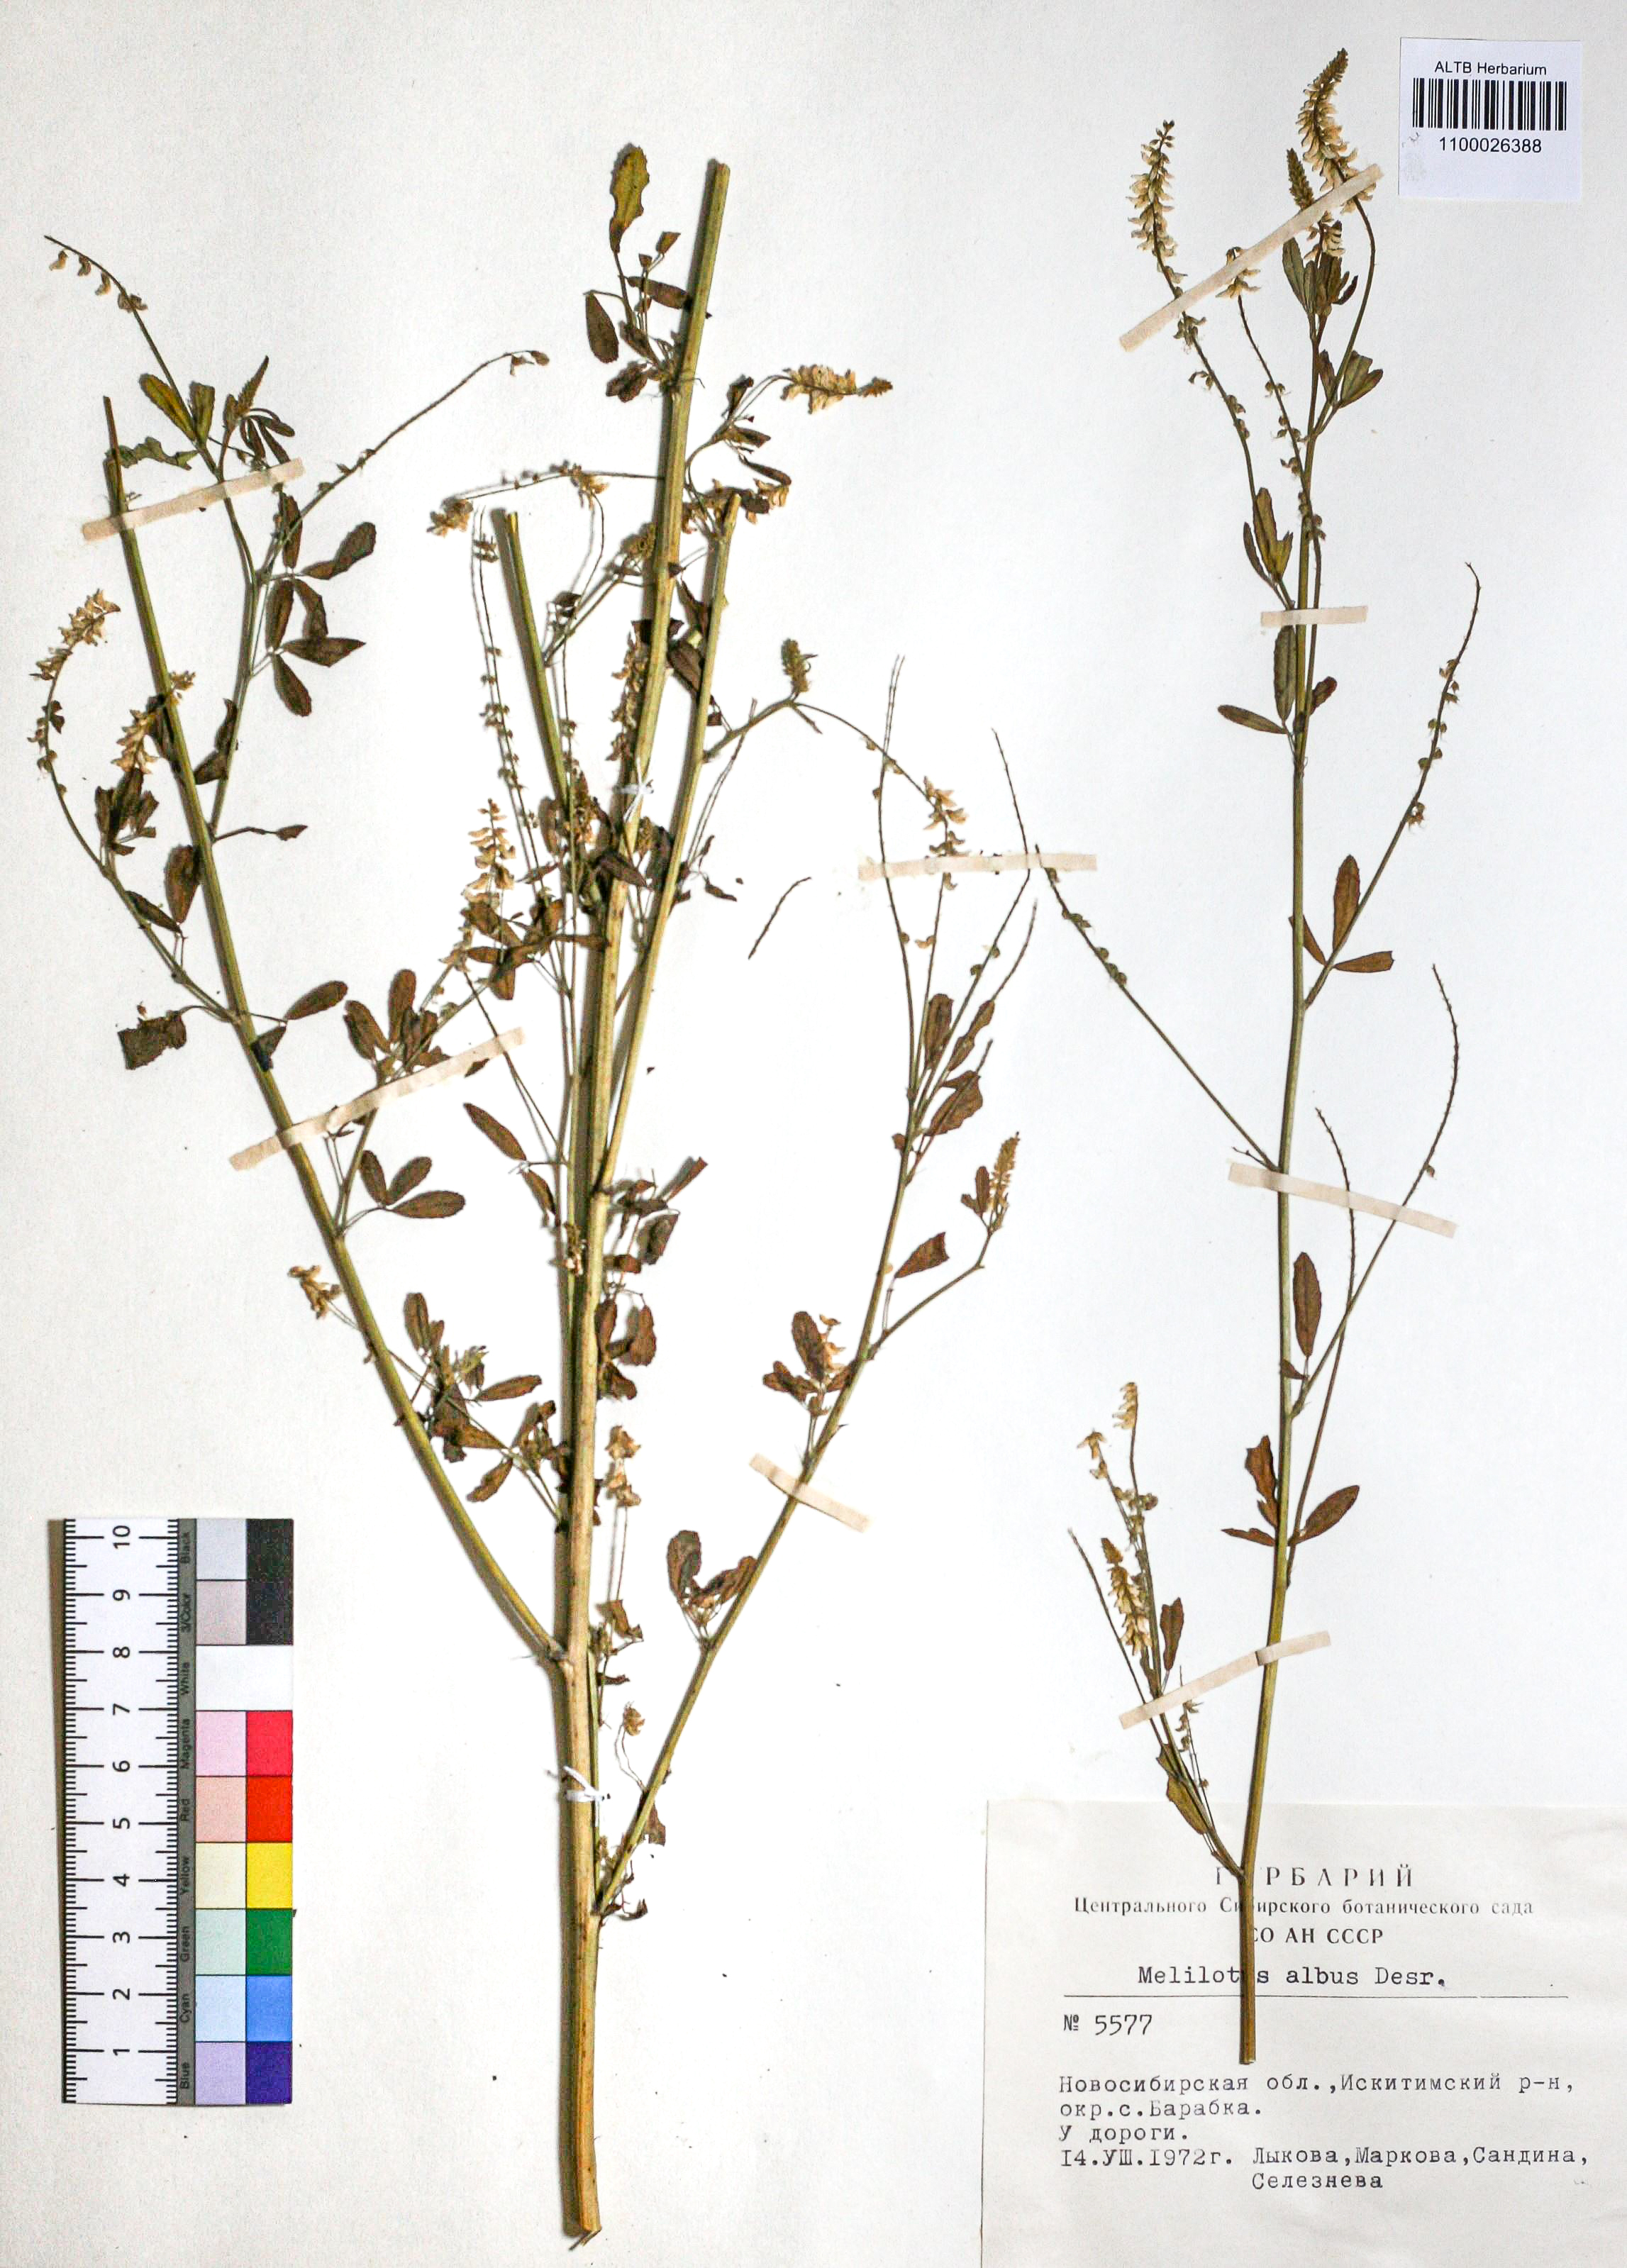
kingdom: Plantae
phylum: Tracheophyta
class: Magnoliopsida
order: Fabales
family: Fabaceae
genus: Melilotus
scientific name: Melilotus albus
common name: White melilot
